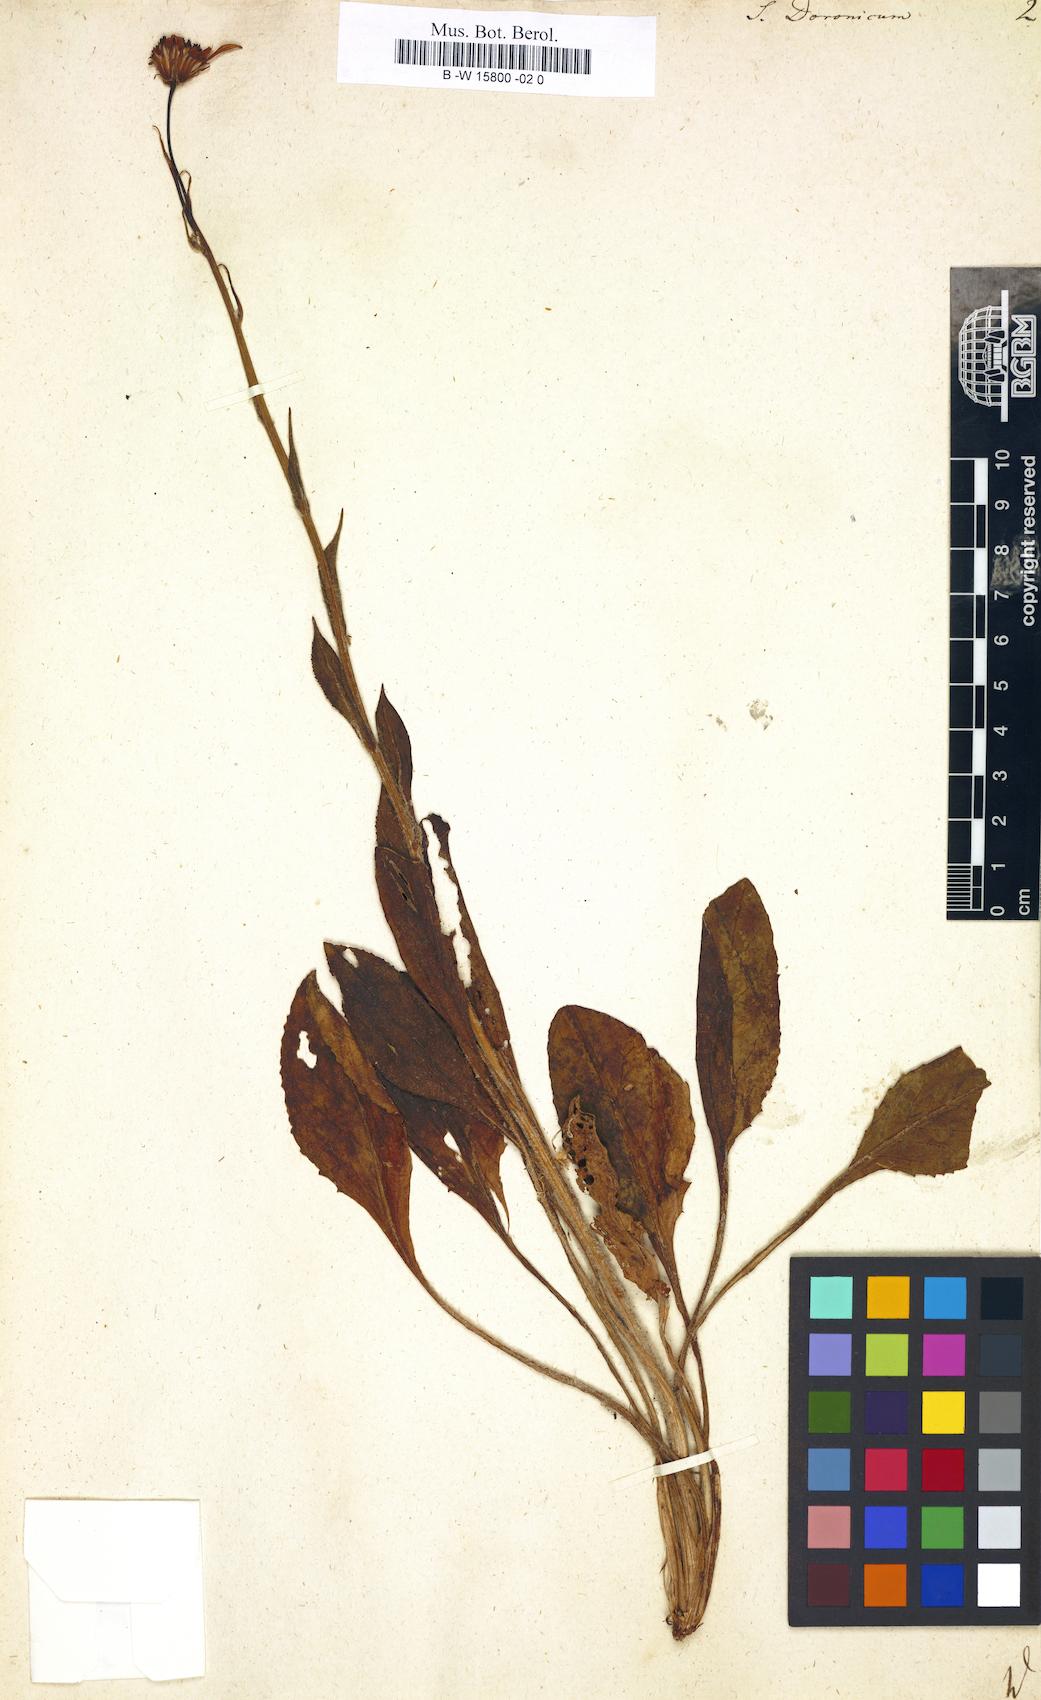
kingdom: Plantae
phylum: Tracheophyta
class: Magnoliopsida
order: Asterales
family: Asteraceae
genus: Senecio
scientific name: Senecio doronicum
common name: Chamois ragwort
